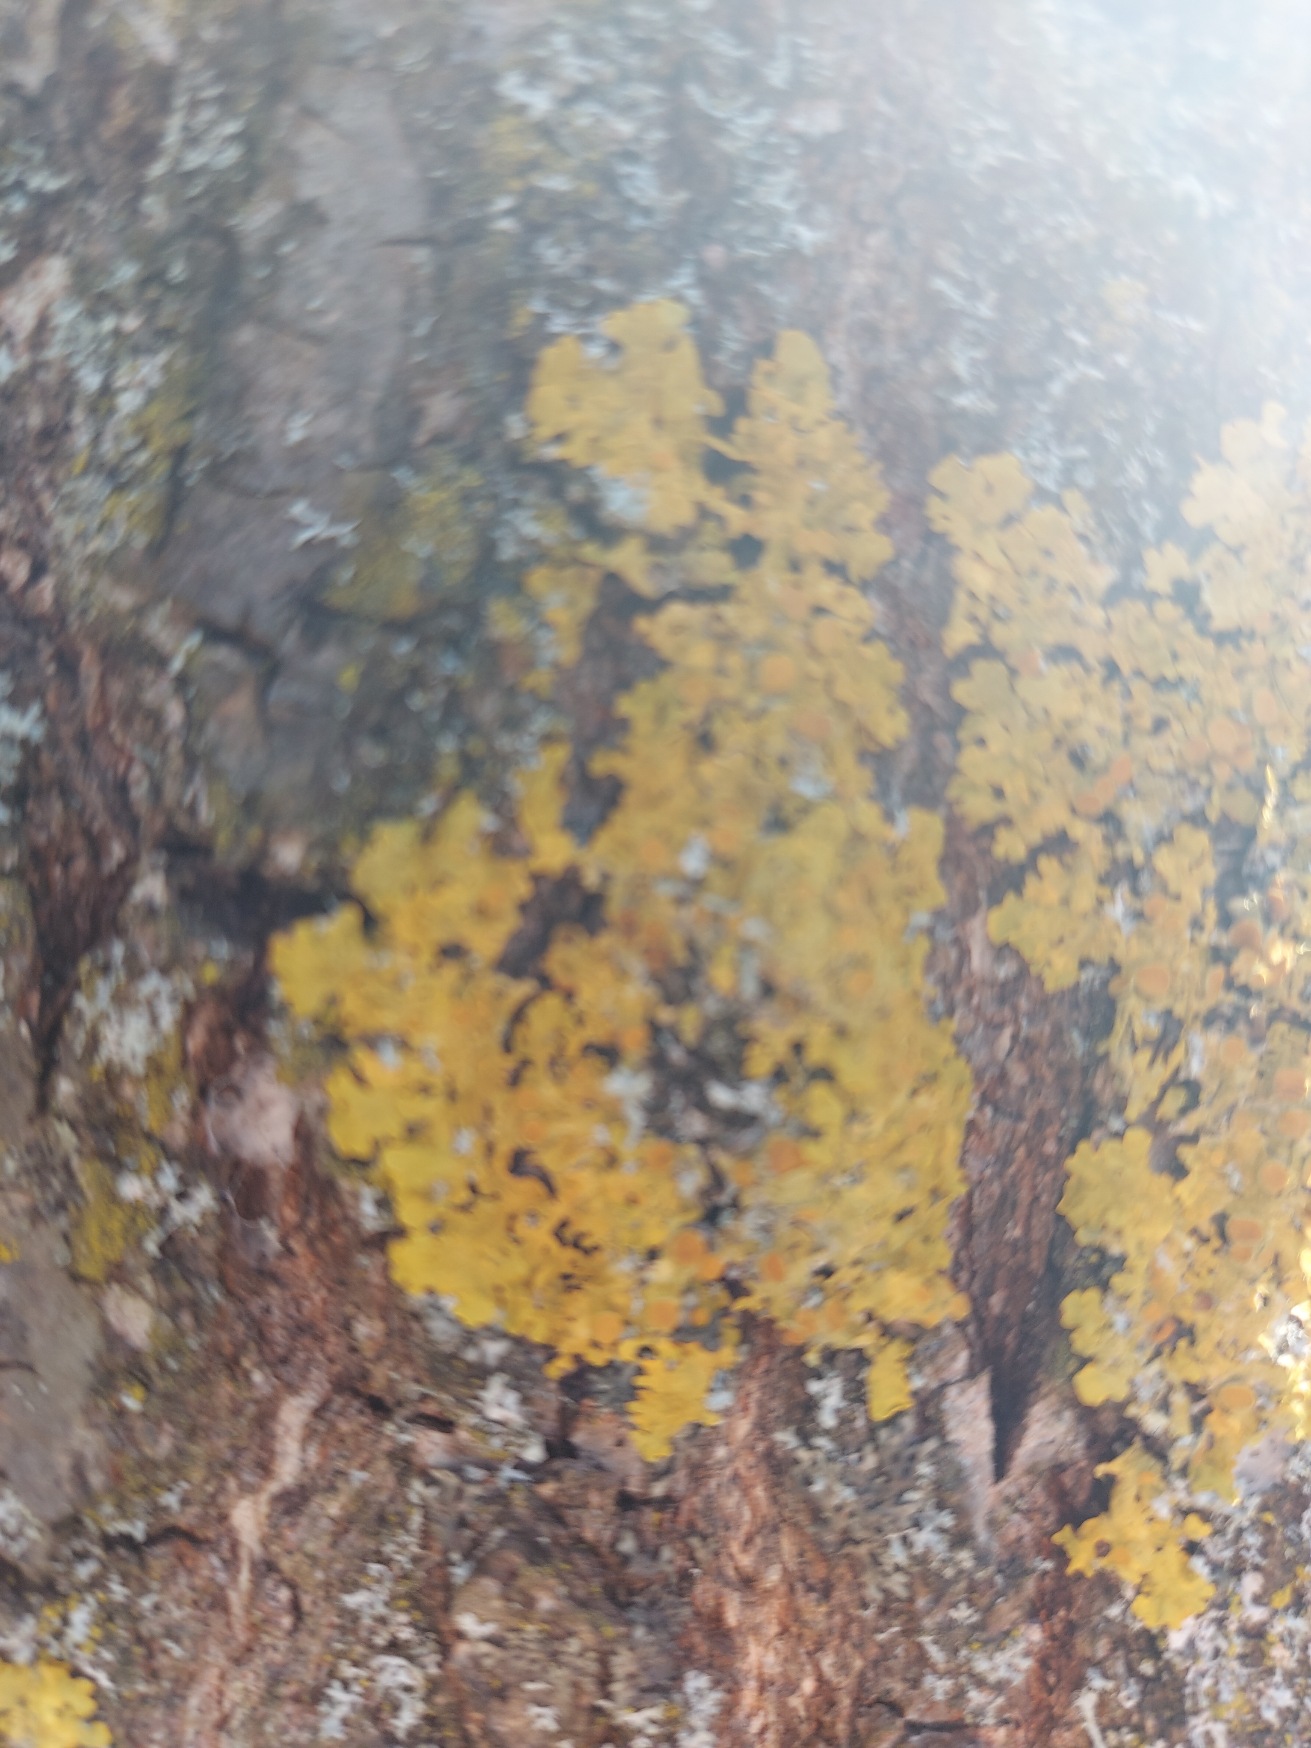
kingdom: Fungi
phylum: Ascomycota
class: Lecanoromycetes
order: Teloschistales
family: Teloschistaceae
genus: Xanthoria
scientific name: Xanthoria parietina
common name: Almindelig væggelav
